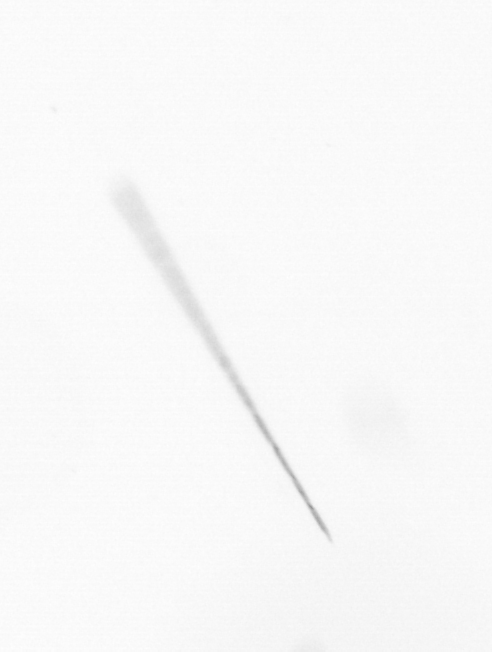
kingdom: Chromista
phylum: Ochrophyta
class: Bacillariophyceae
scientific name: Bacillariophyceae
